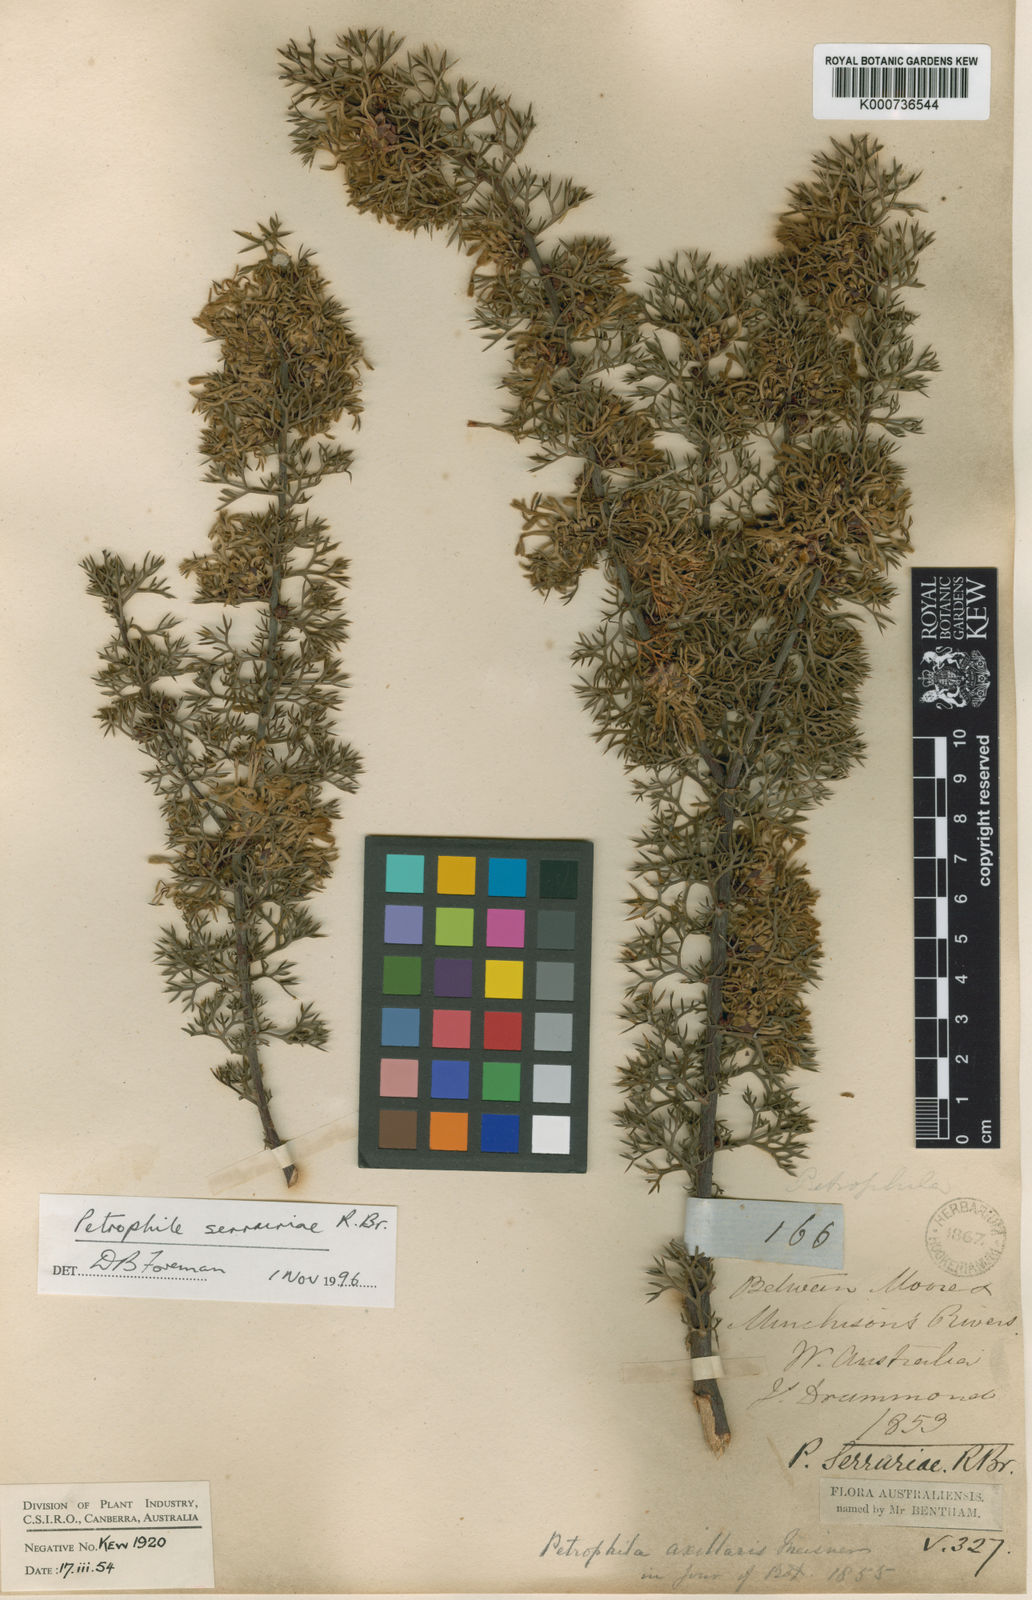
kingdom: Plantae
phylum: Tracheophyta
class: Magnoliopsida
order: Proteales
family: Proteaceae
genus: Petrophile
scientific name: Petrophile serruriae
